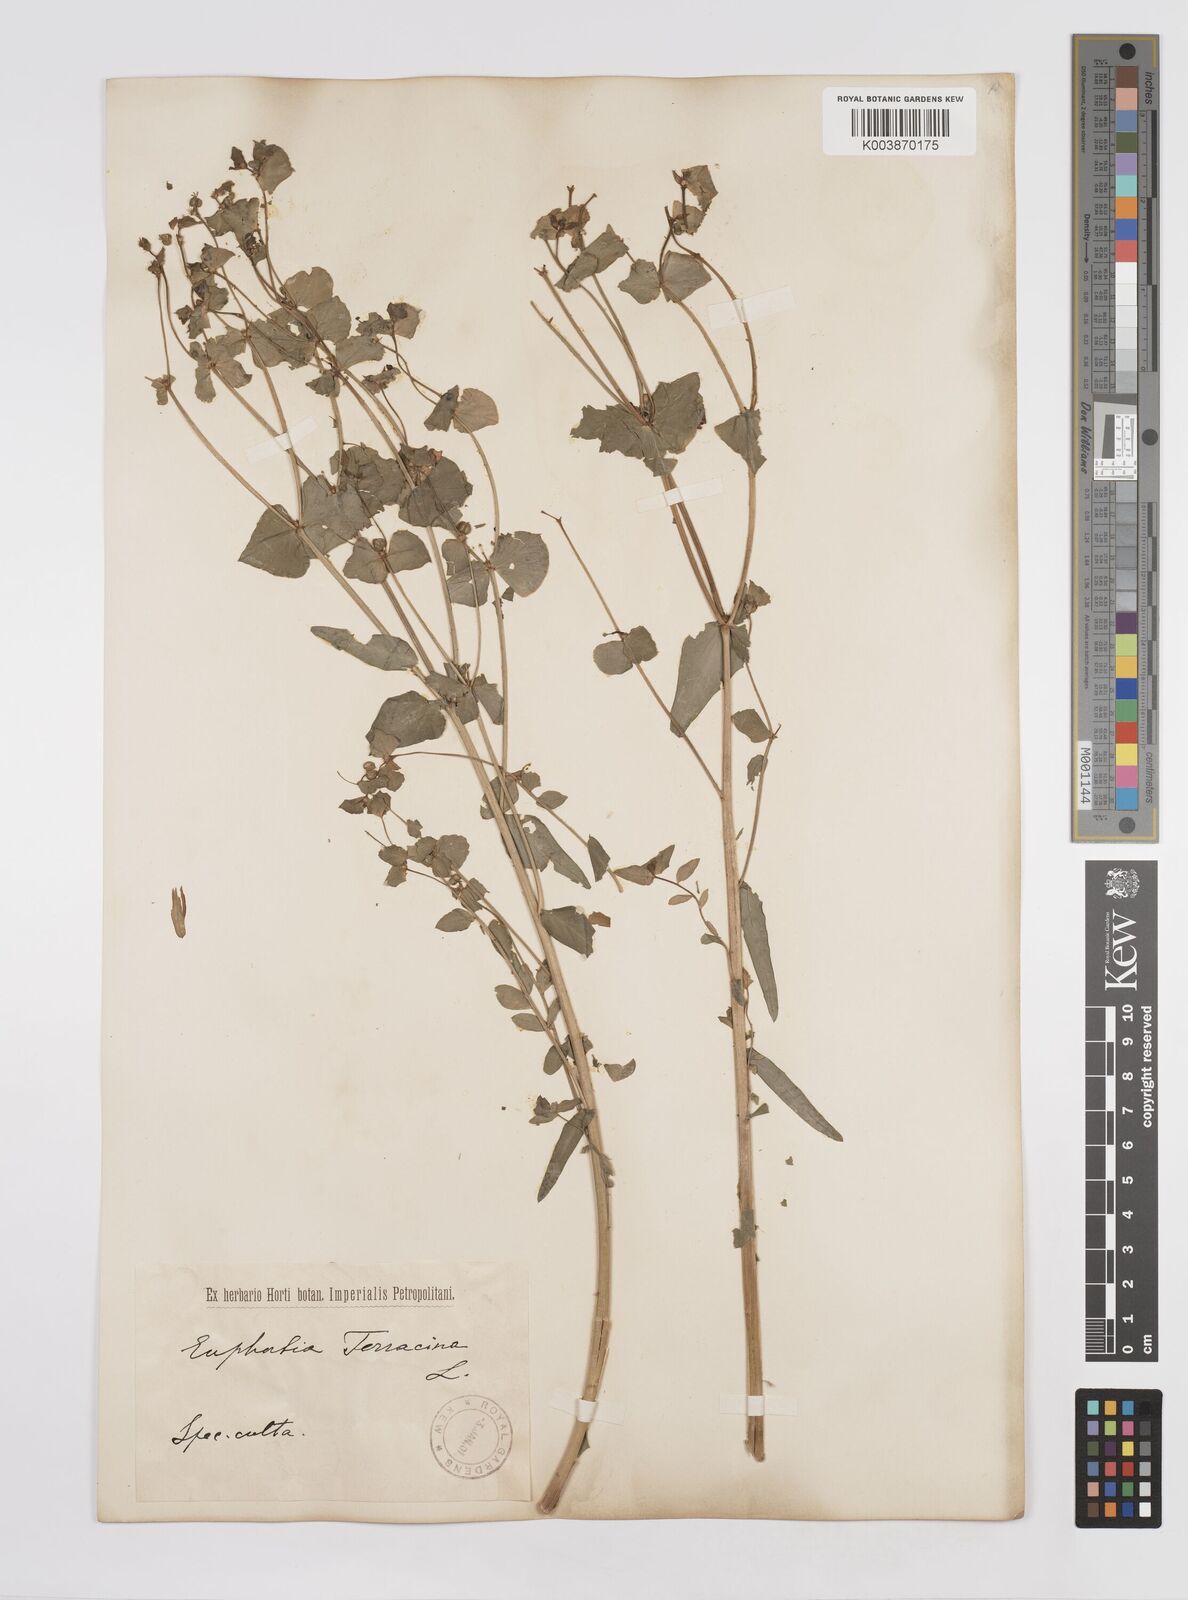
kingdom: Plantae
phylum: Tracheophyta
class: Magnoliopsida
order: Malpighiales
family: Euphorbiaceae
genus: Euphorbia
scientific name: Euphorbia terracina
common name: Geraldton carnation weed
